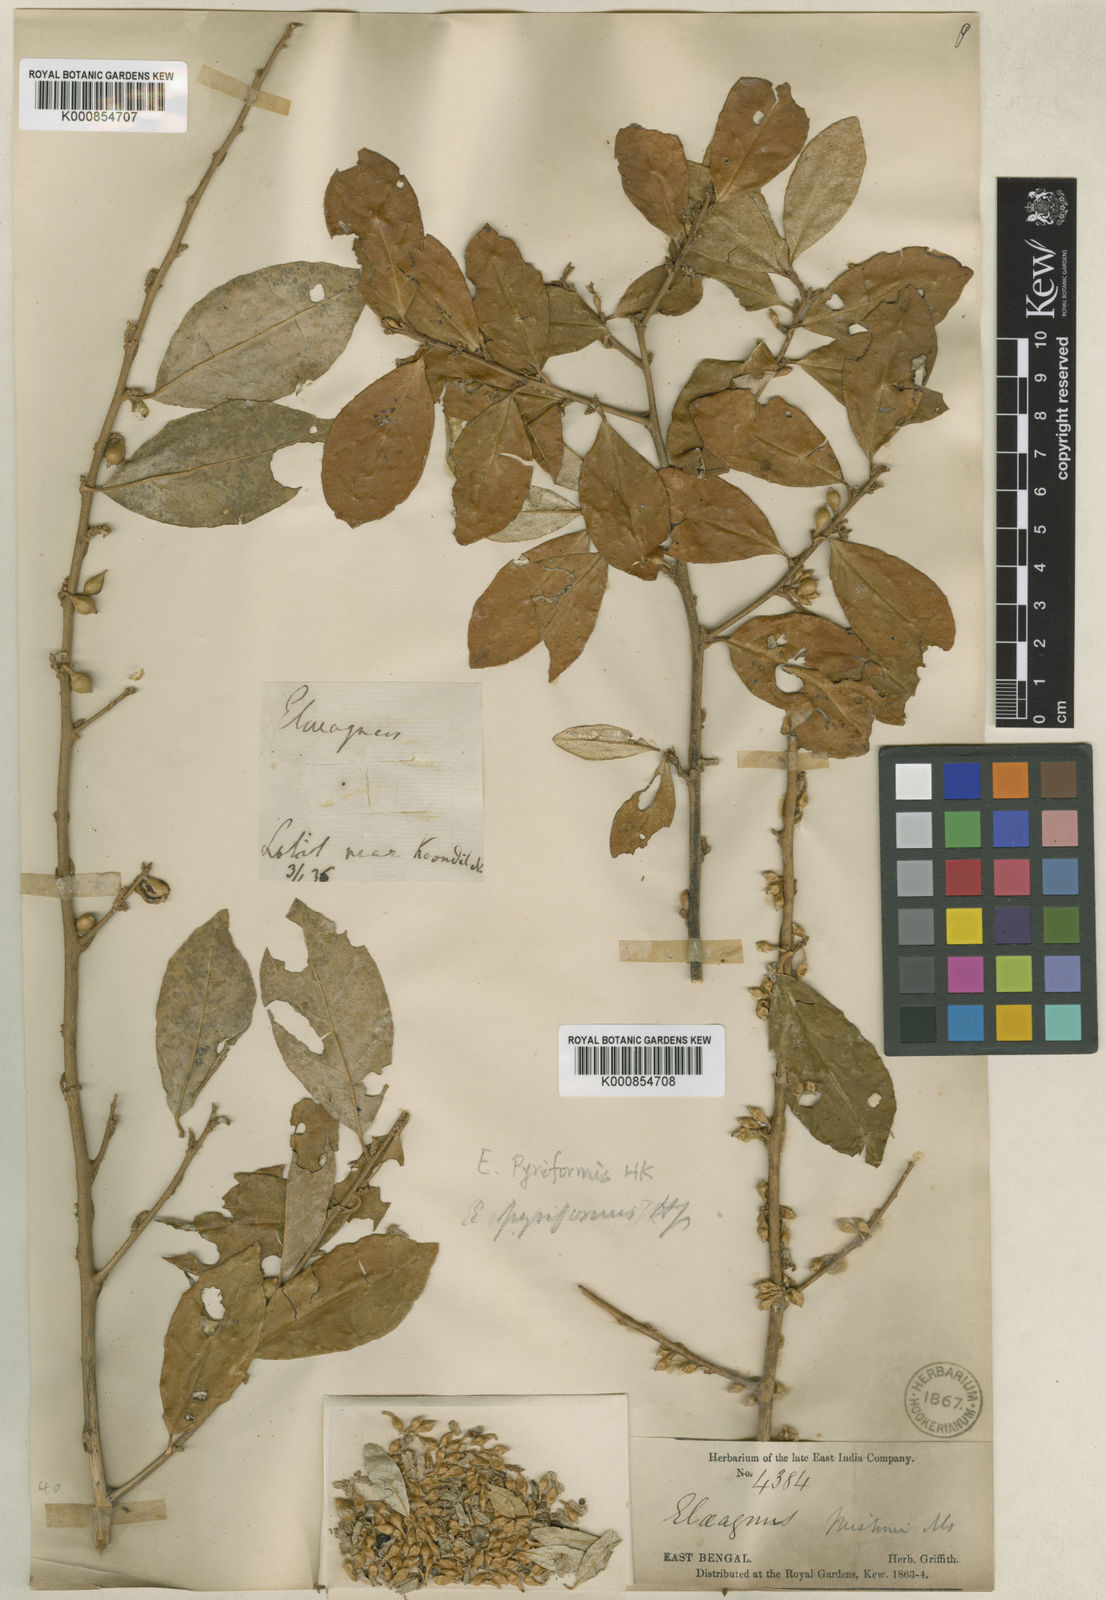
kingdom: Plantae
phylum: Tracheophyta
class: Magnoliopsida
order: Rosales
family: Elaeagnaceae
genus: Elaeagnus
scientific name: Elaeagnus pyriformis
